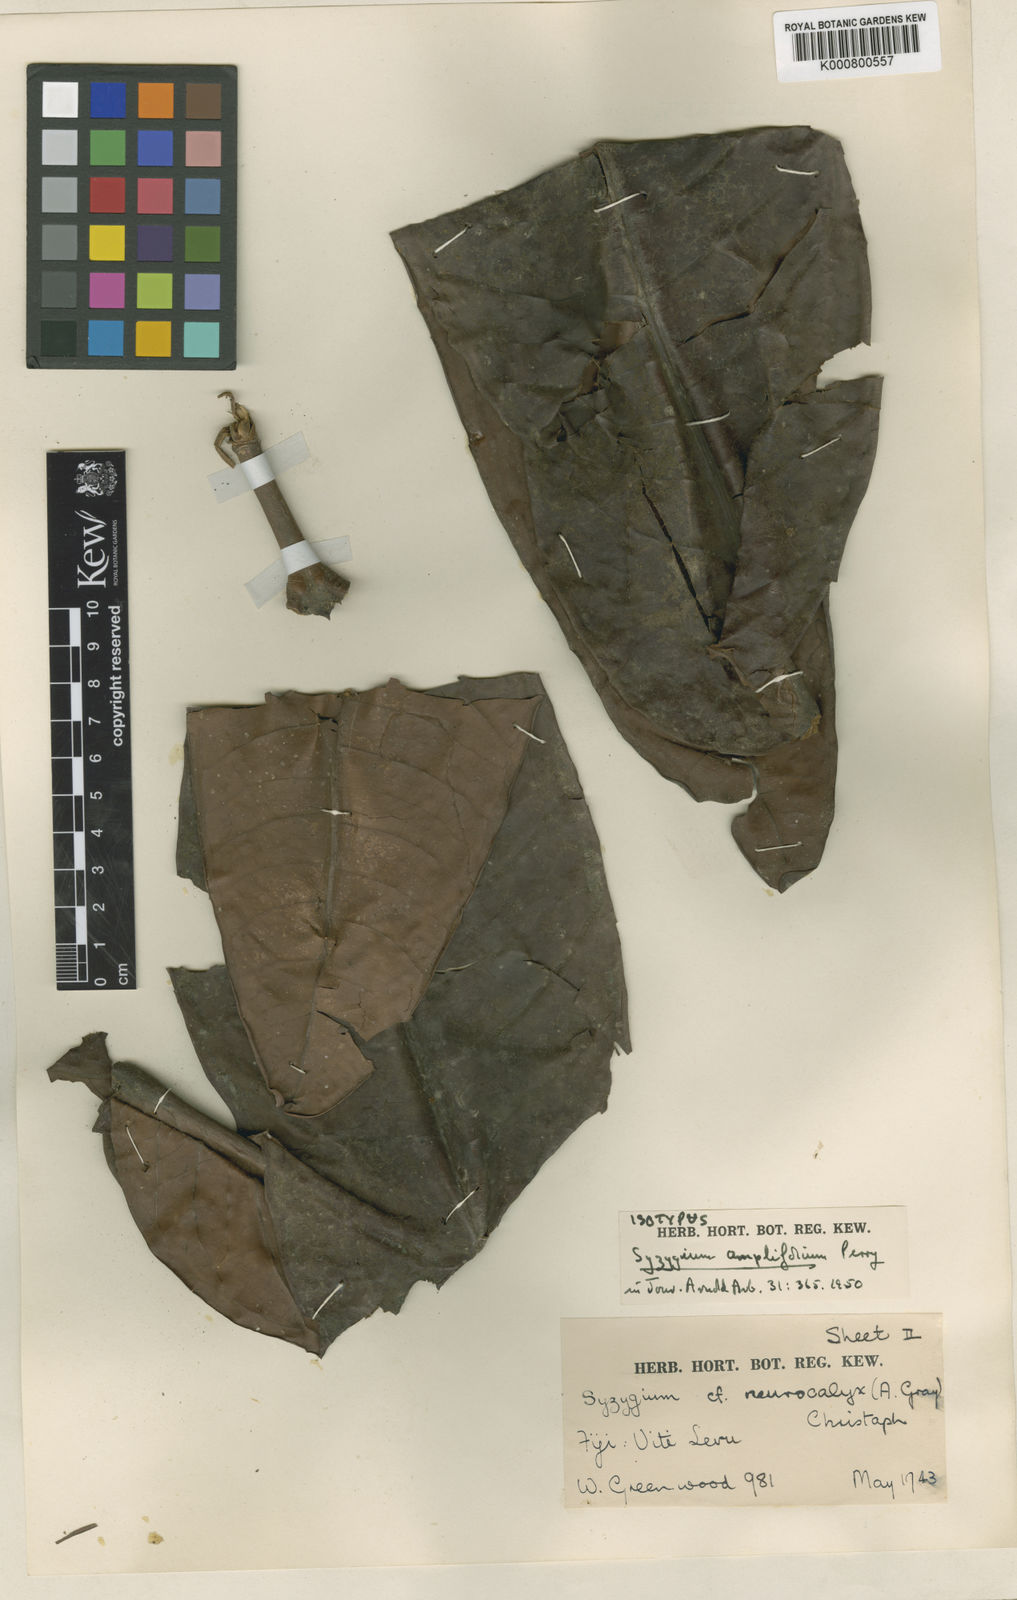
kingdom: Plantae
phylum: Tracheophyta
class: Magnoliopsida
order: Myrtales
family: Myrtaceae
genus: Syzygium
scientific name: Syzygium amplifolium
